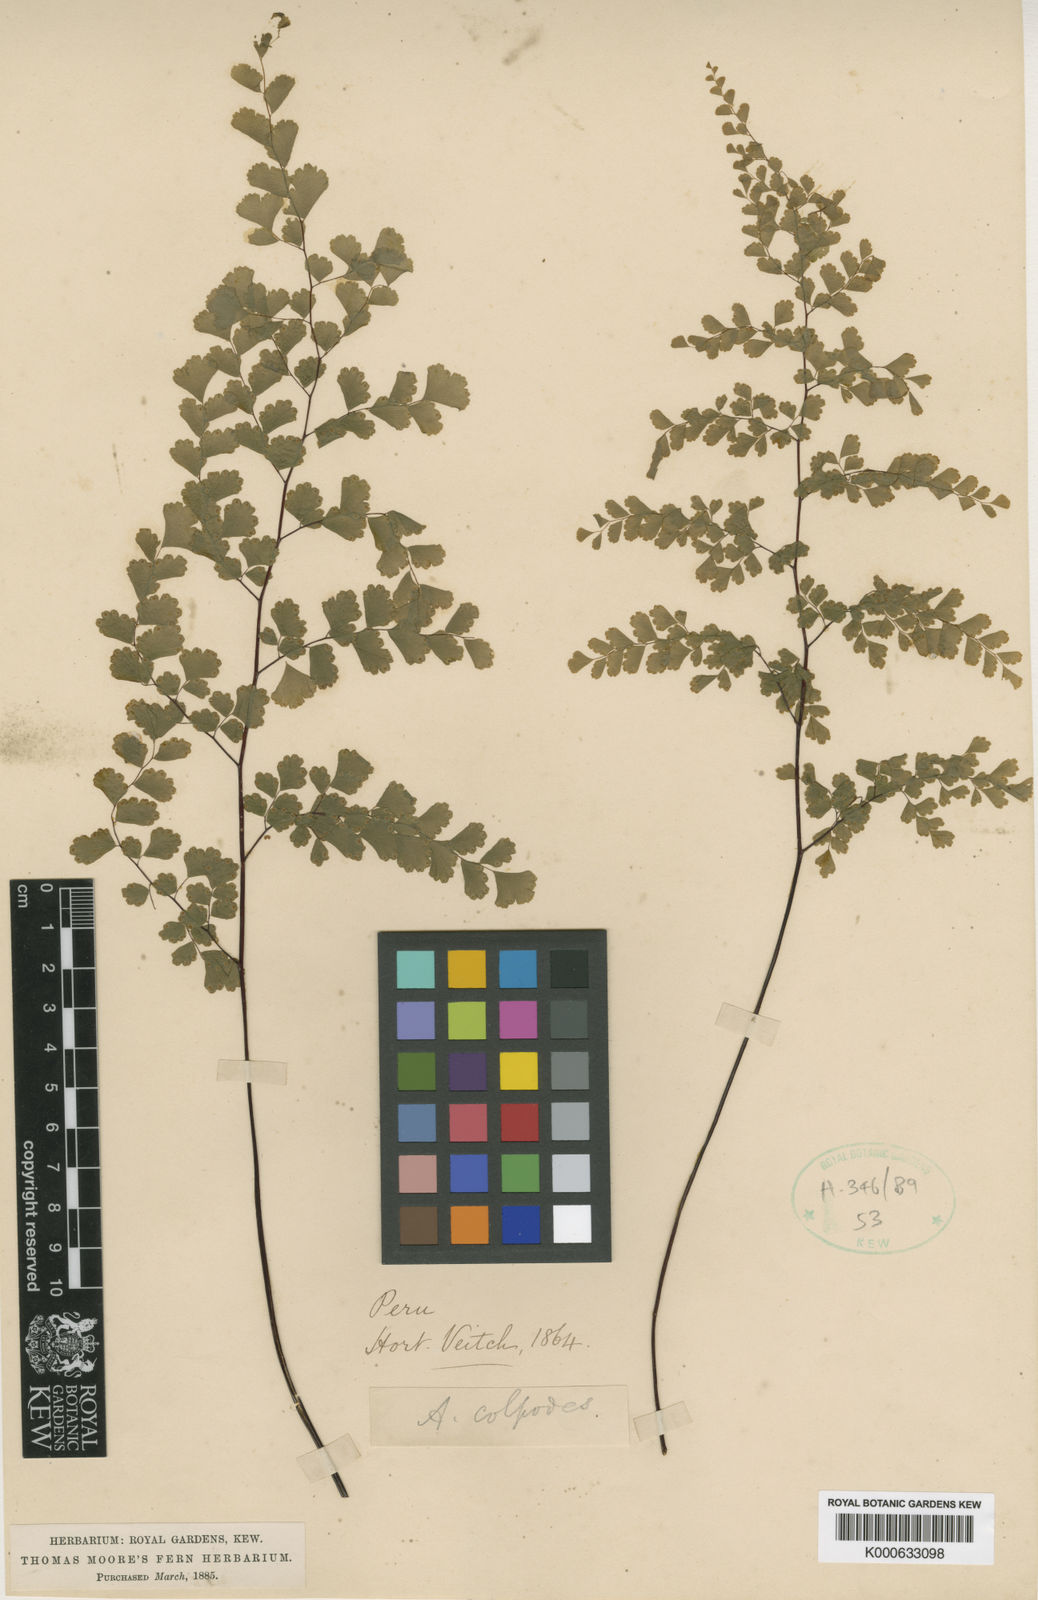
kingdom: Plantae
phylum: Tracheophyta
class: Polypodiopsida
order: Polypodiales
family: Pteridaceae
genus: Adiantum
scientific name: Adiantum raddianum
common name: Delta maidenhair fern
